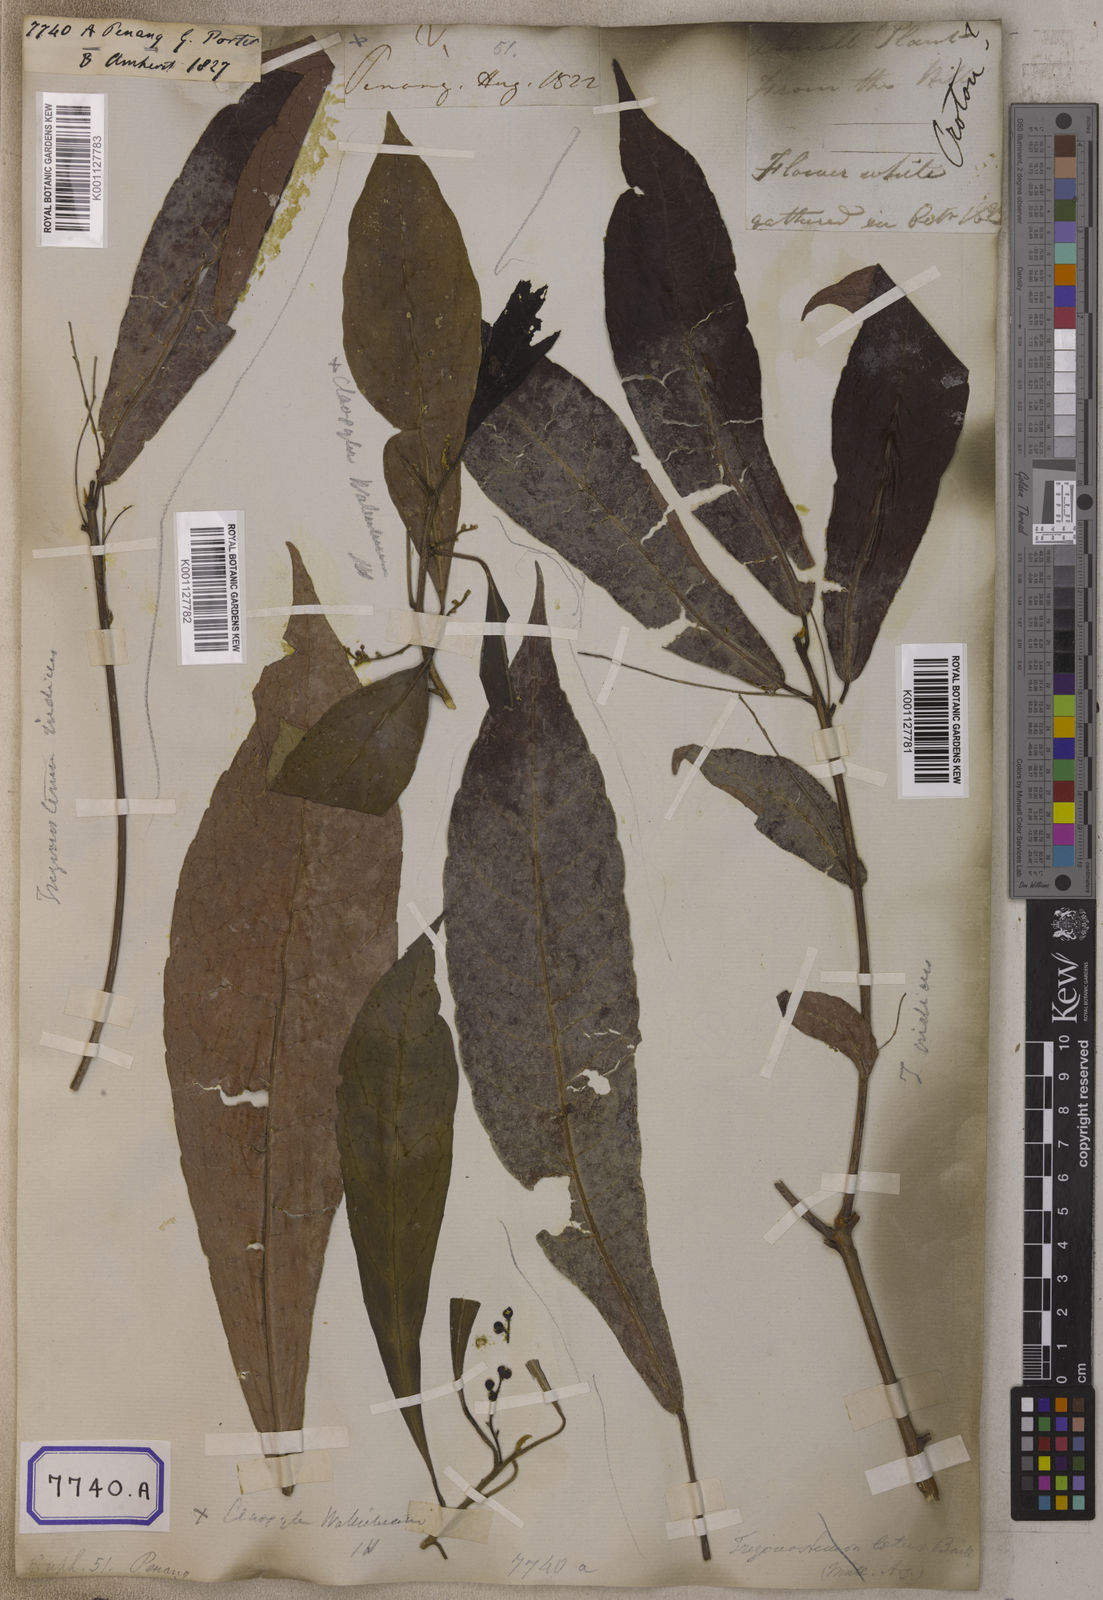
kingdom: Plantae
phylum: Tracheophyta
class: Magnoliopsida
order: Malpighiales
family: Euphorbiaceae
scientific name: Euphorbiaceae
